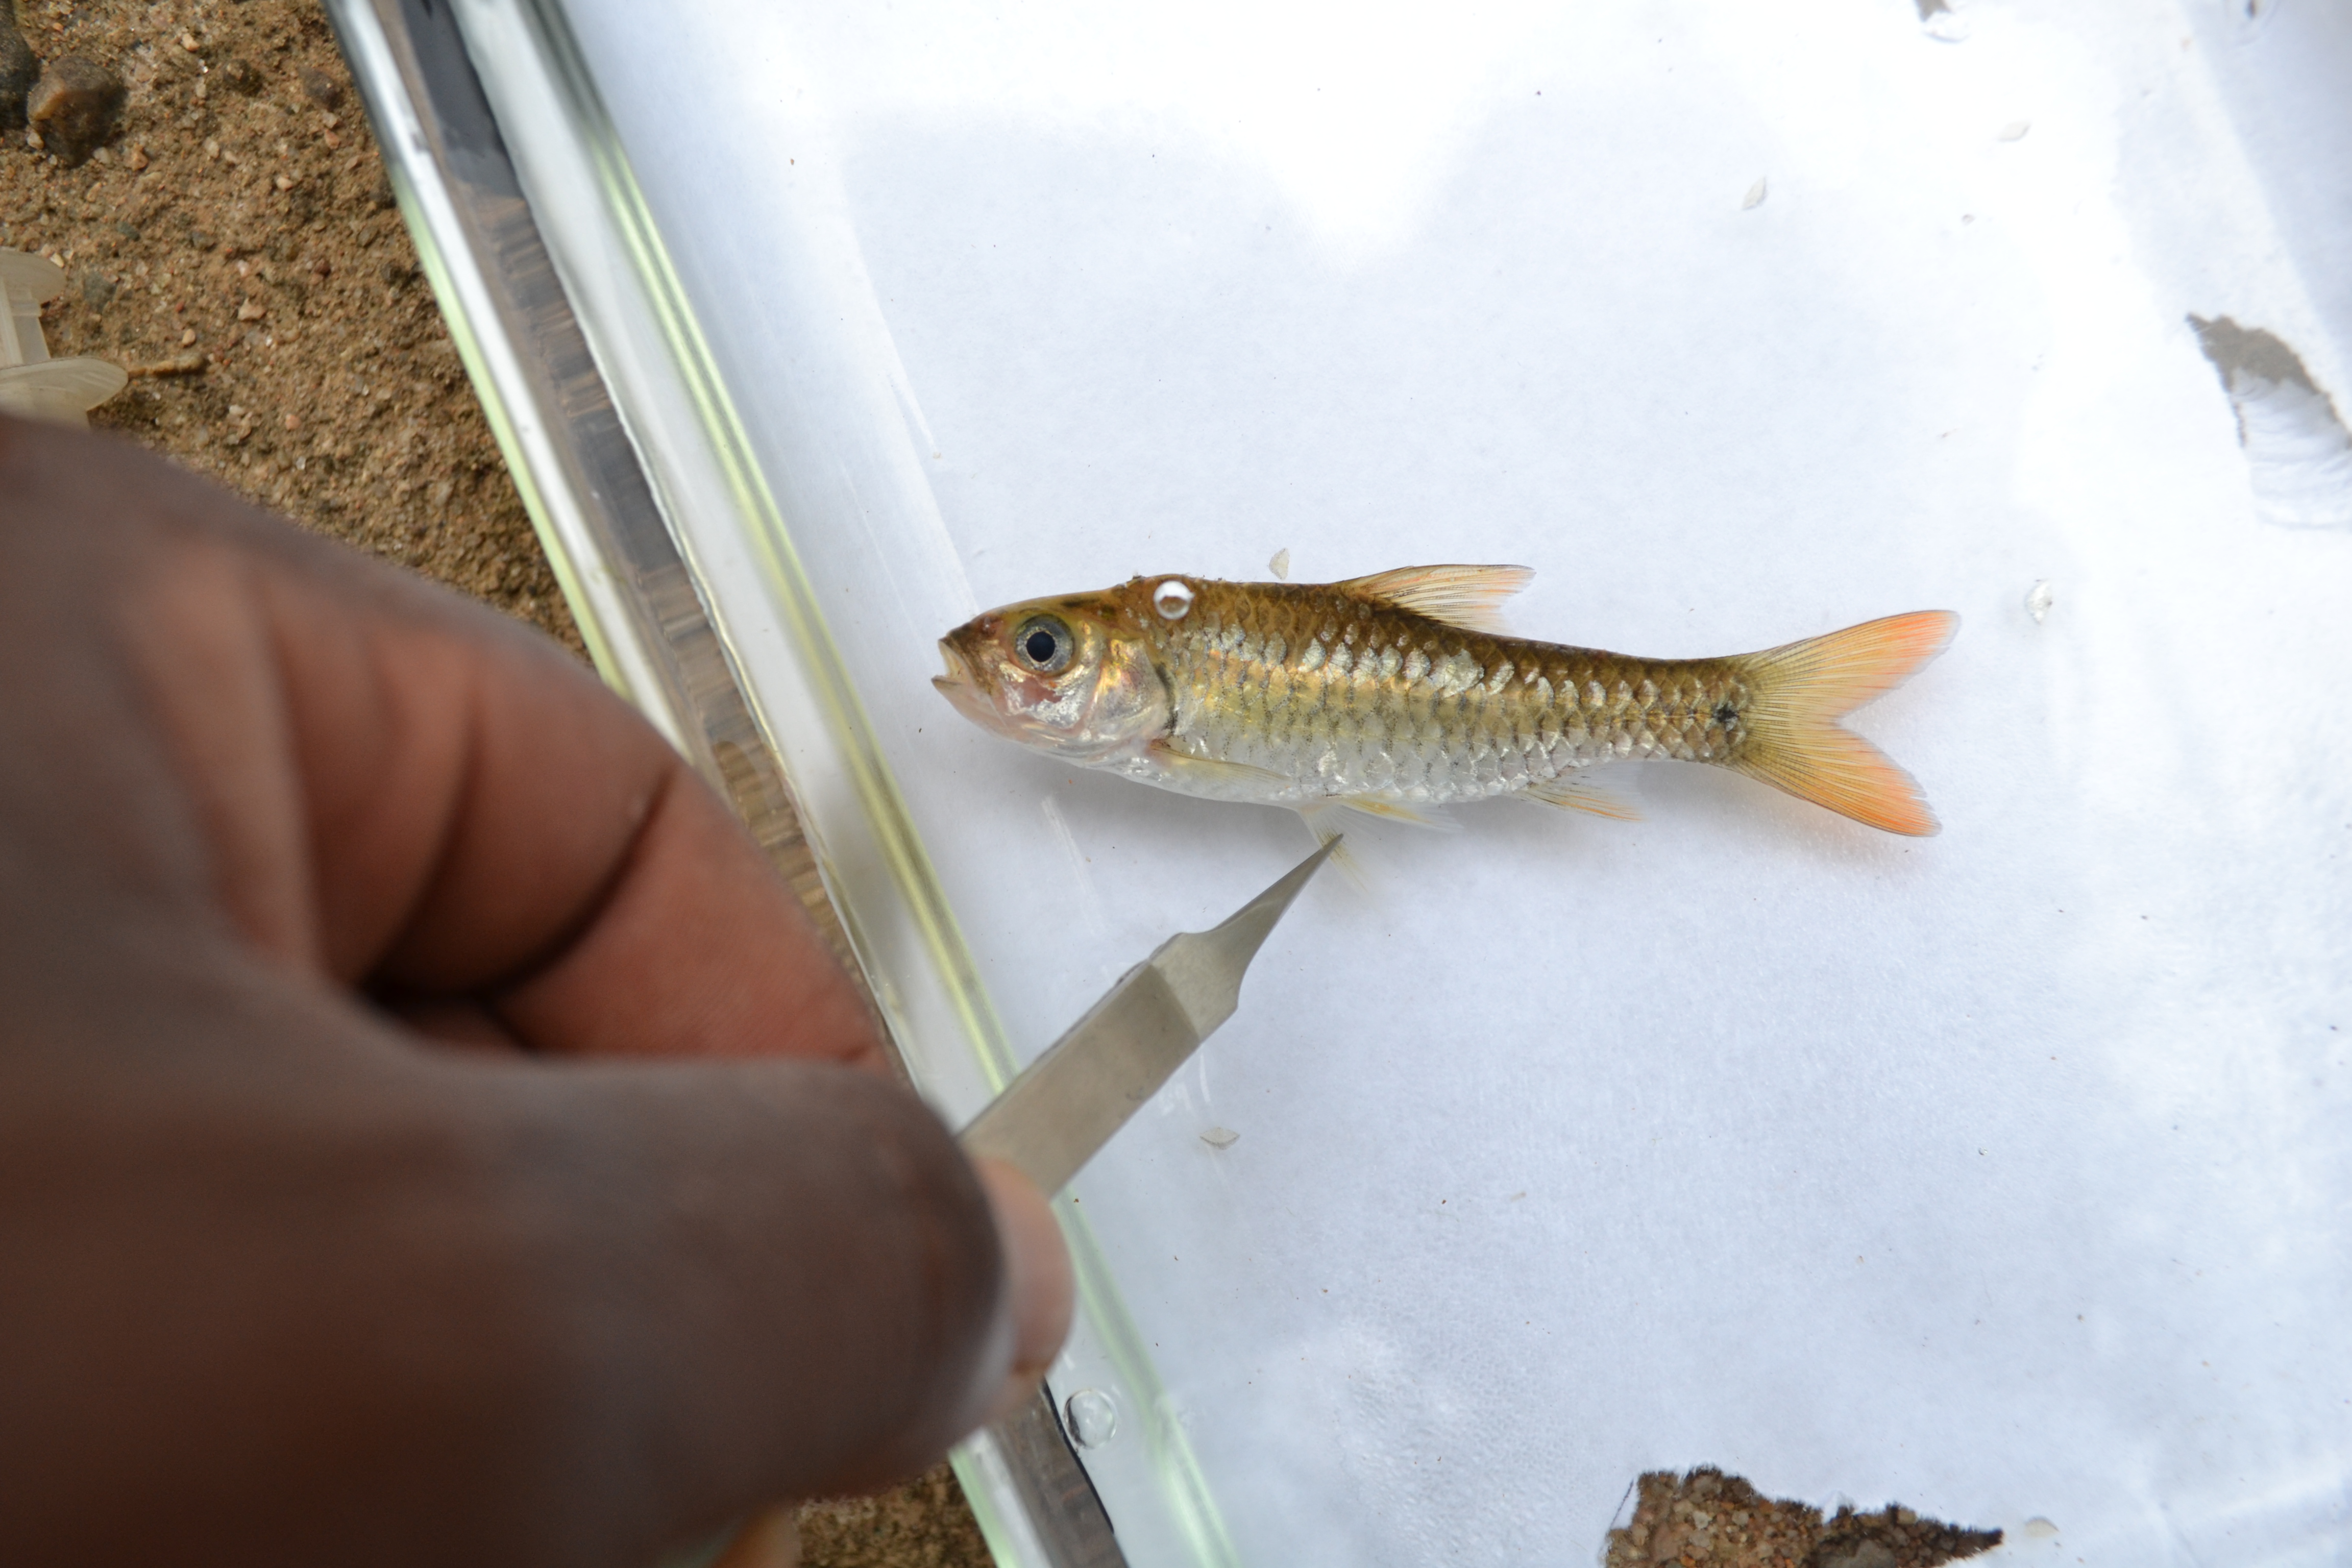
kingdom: Animalia
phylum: Chordata
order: Cypriniformes
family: Cyprinidae
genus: Enteromius
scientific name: Enteromius
